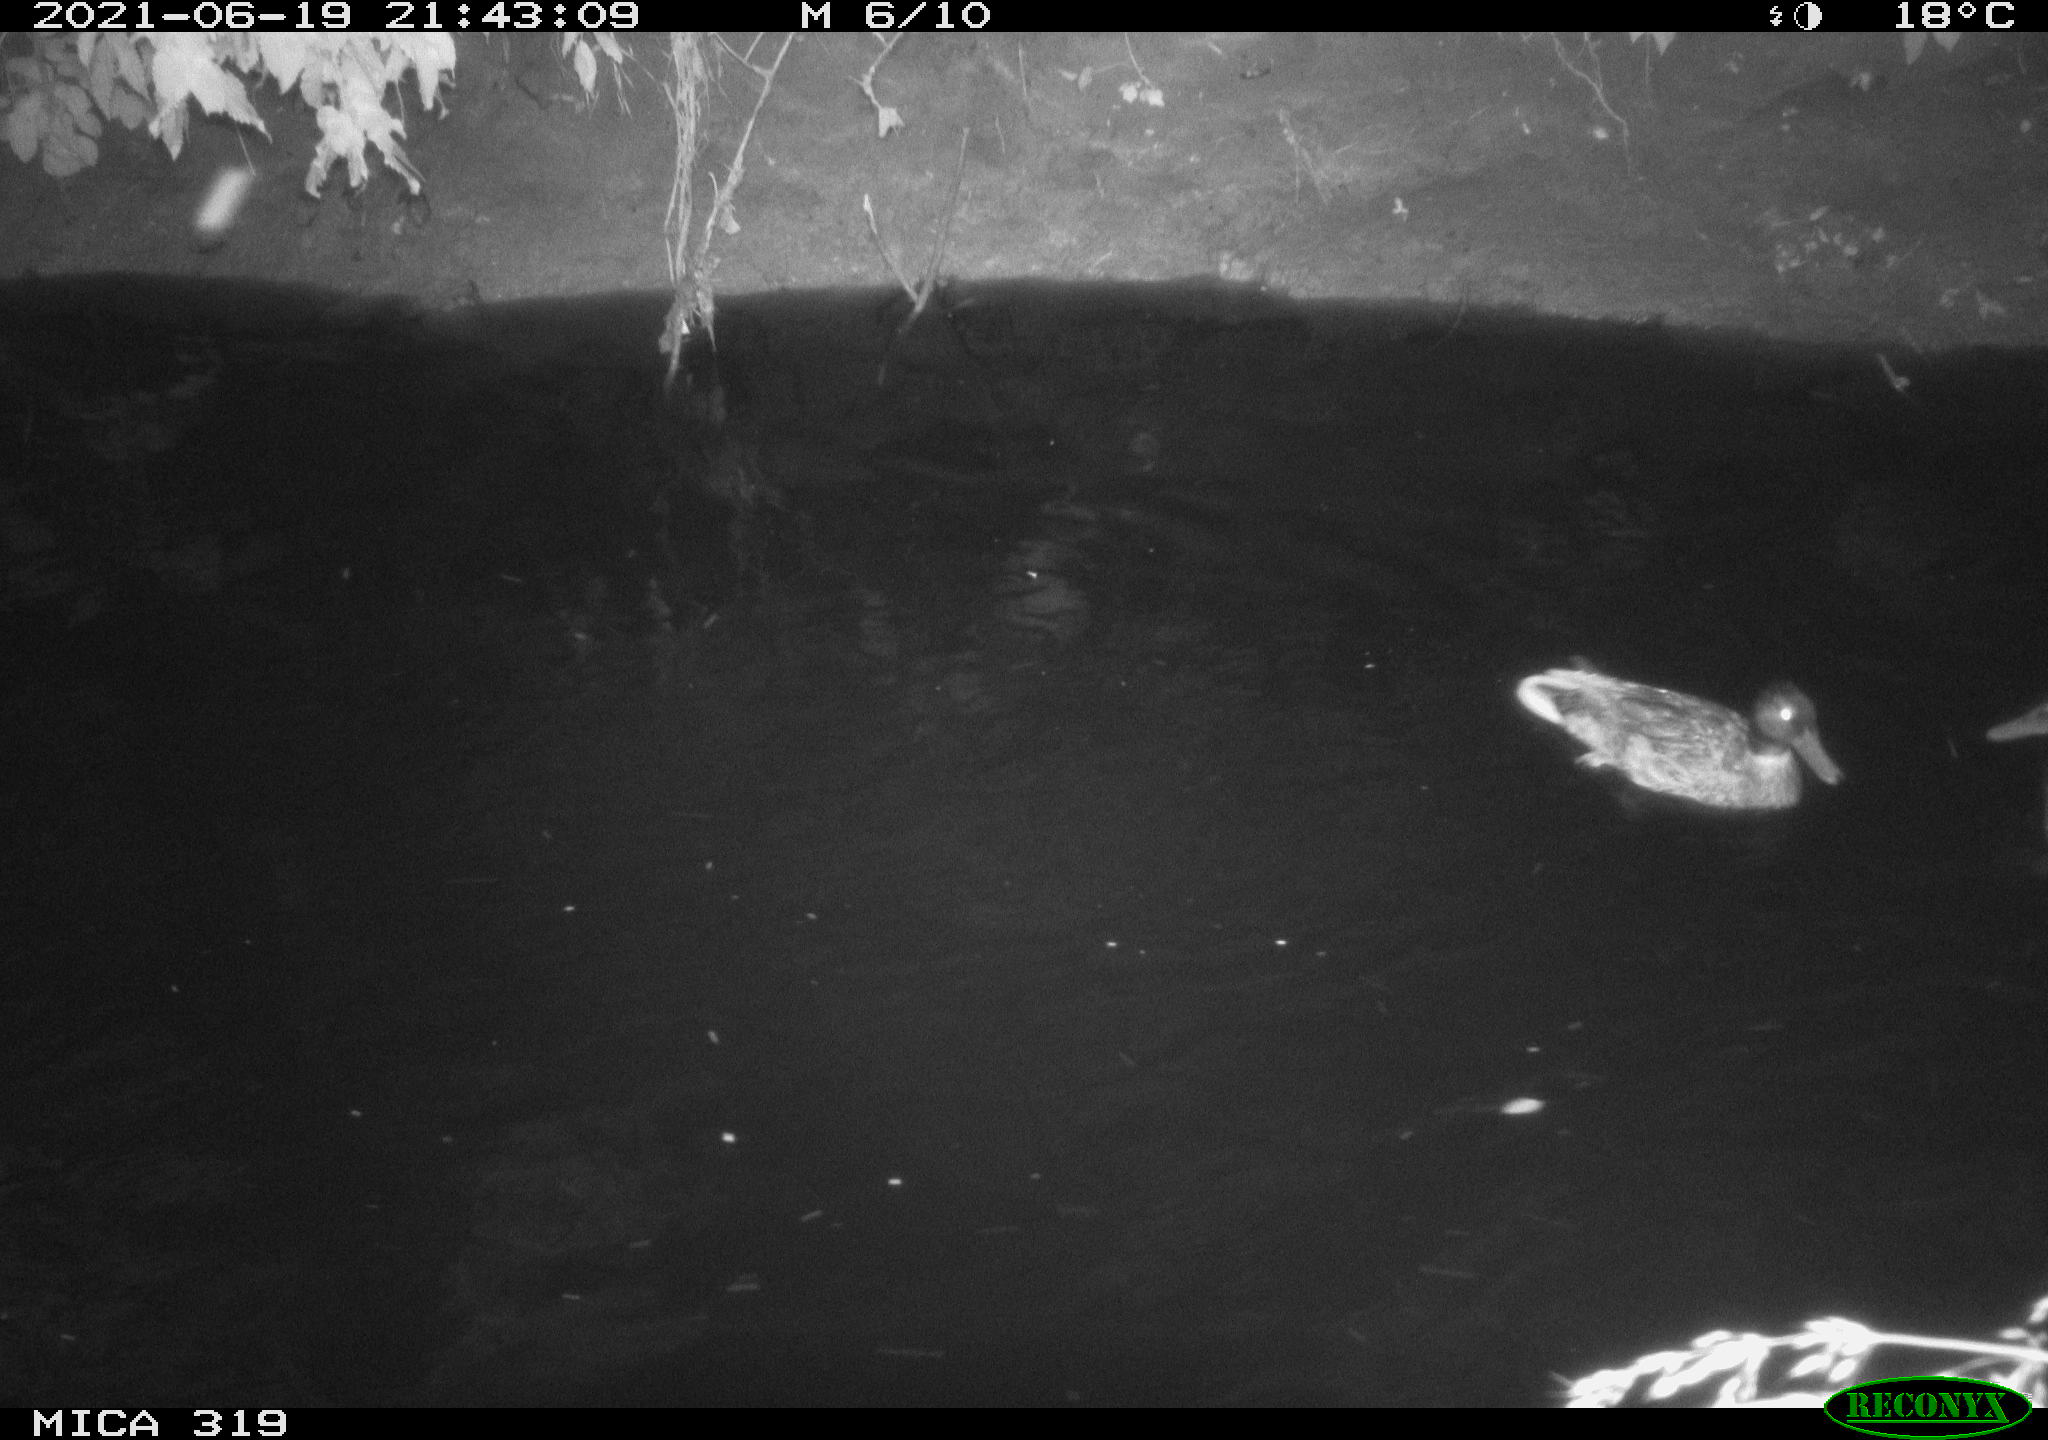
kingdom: Animalia
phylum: Chordata
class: Aves
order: Anseriformes
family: Anatidae
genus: Anas
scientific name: Anas platyrhynchos
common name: Mallard
